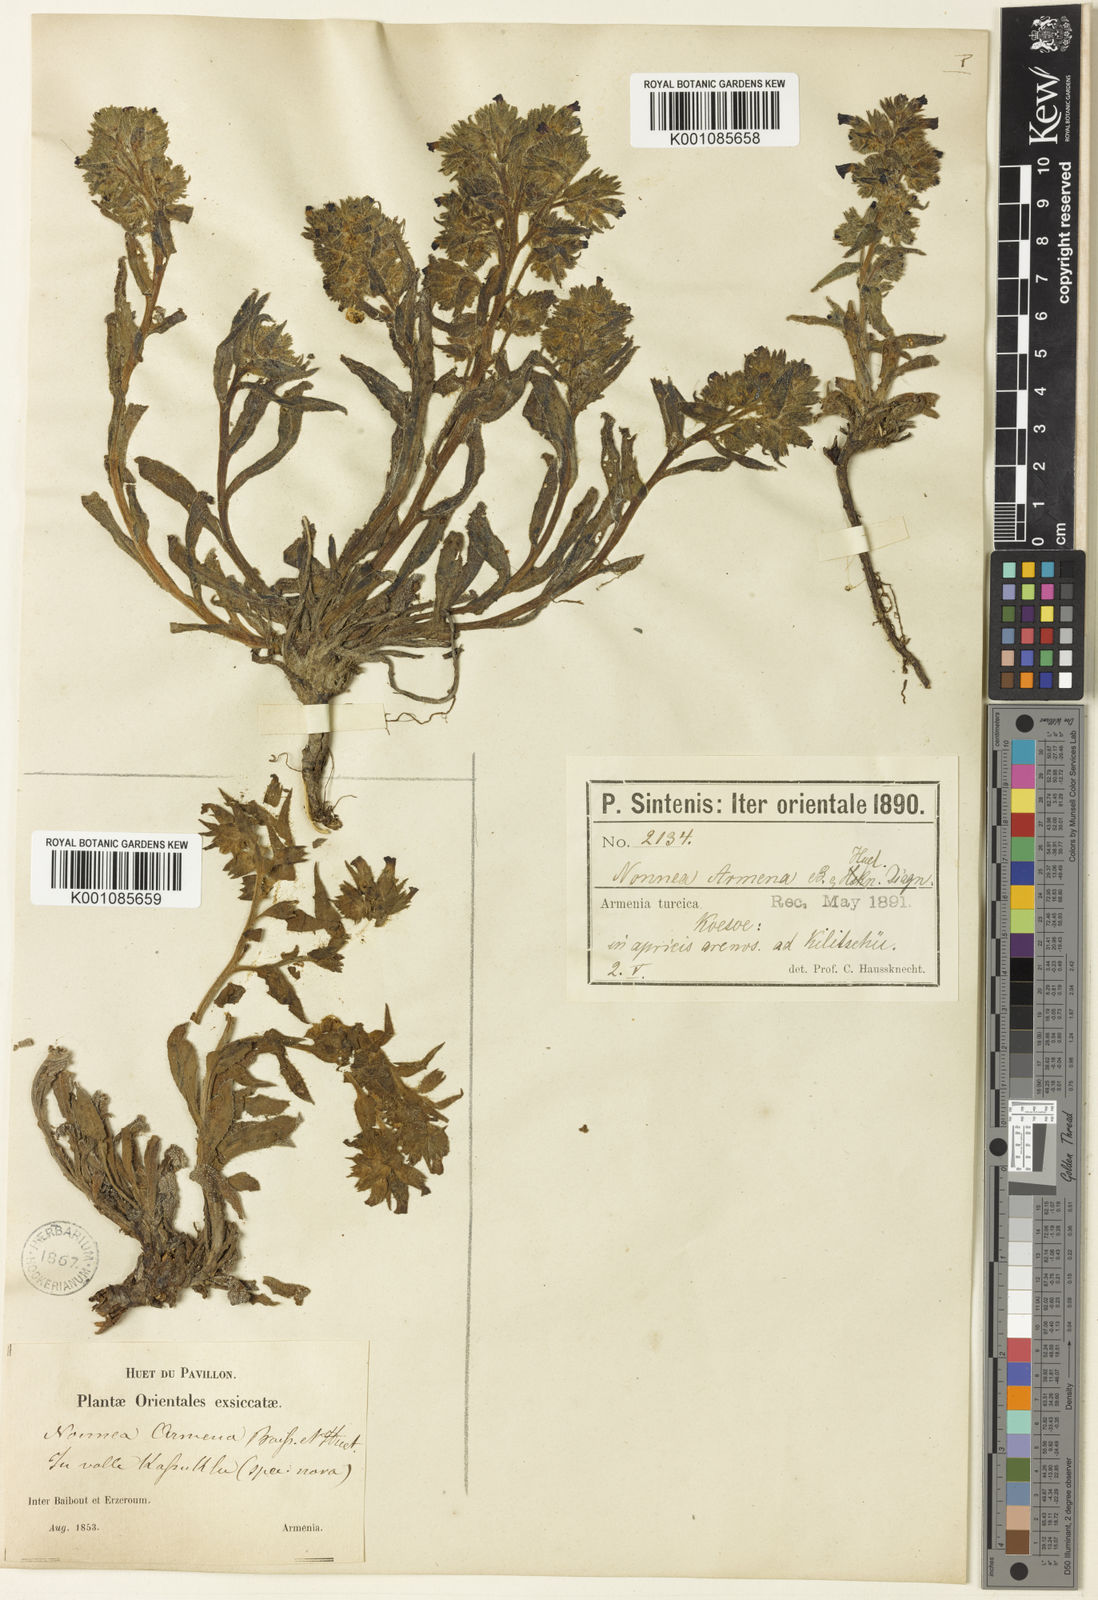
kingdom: Plantae
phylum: Tracheophyta
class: Magnoliopsida
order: Boraginales
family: Boraginaceae
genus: Nonea
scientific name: Nonea pulla
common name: Brown nonea
